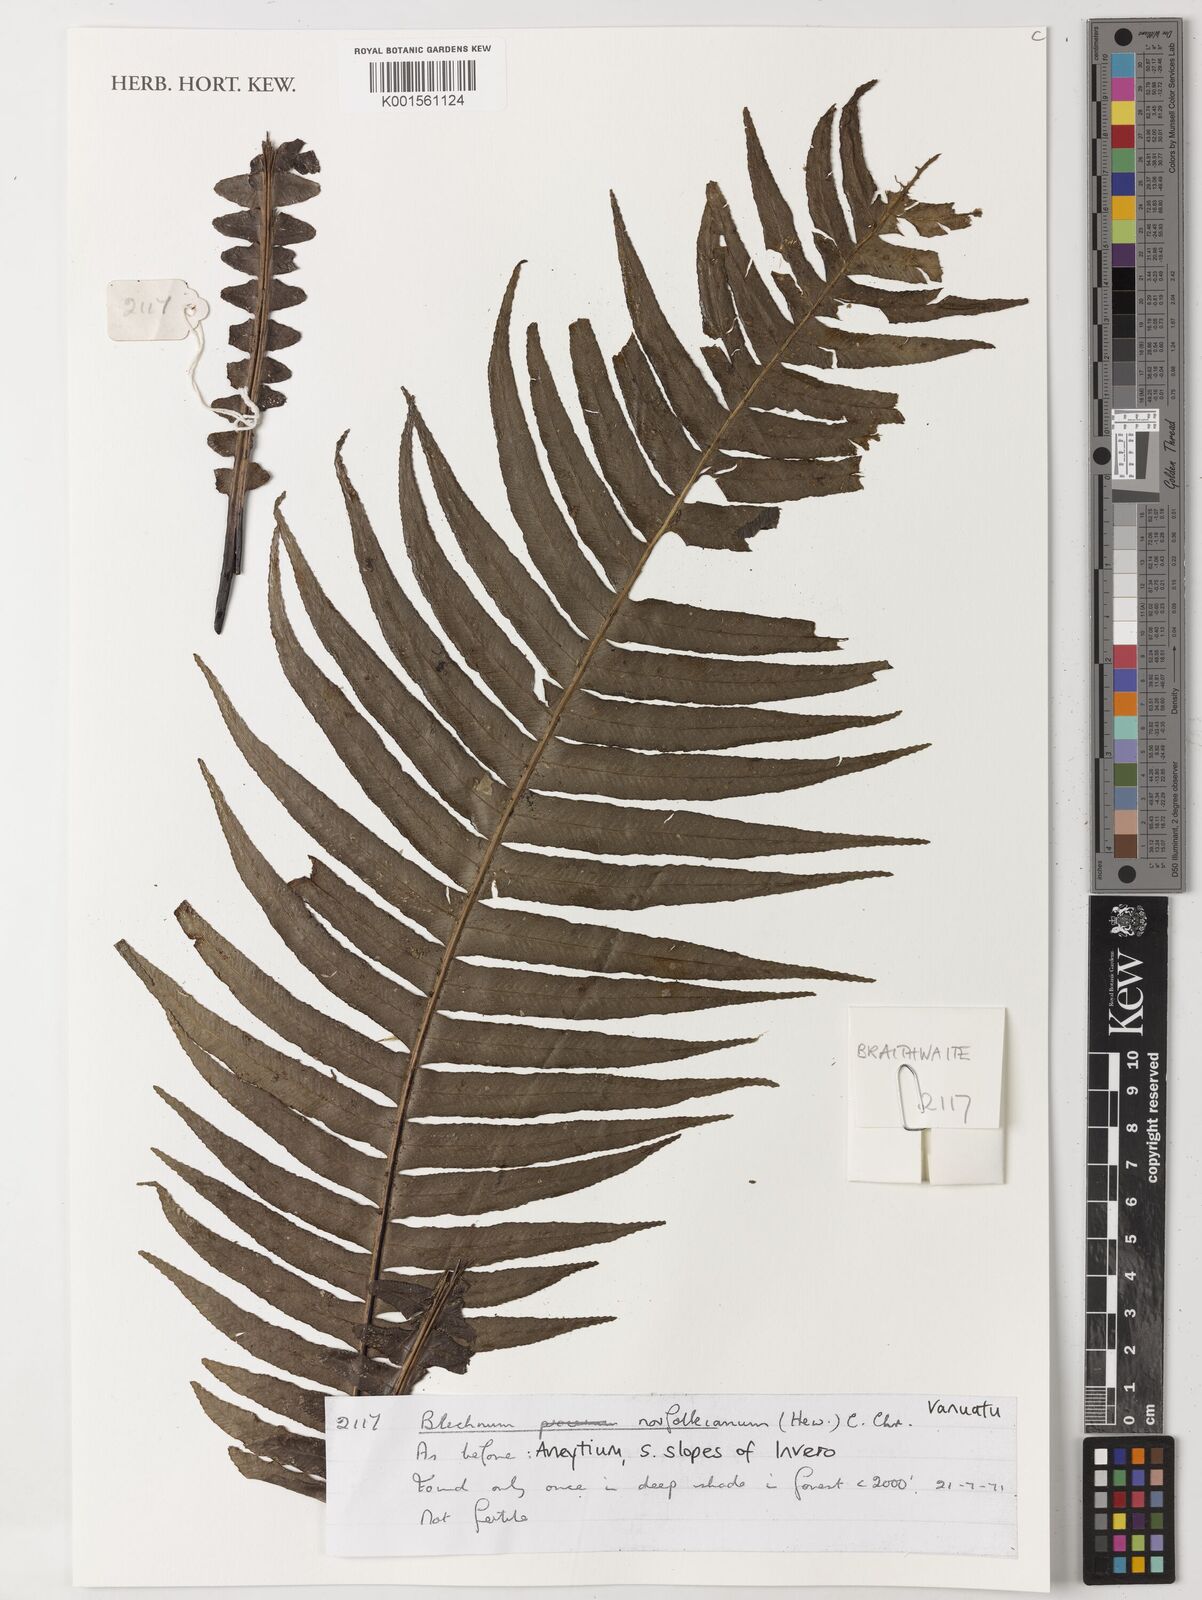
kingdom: Plantae
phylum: Tracheophyta
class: Polypodiopsida
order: Polypodiales
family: Blechnaceae
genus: Austroblechnum
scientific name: Austroblechnum norfolkianum
